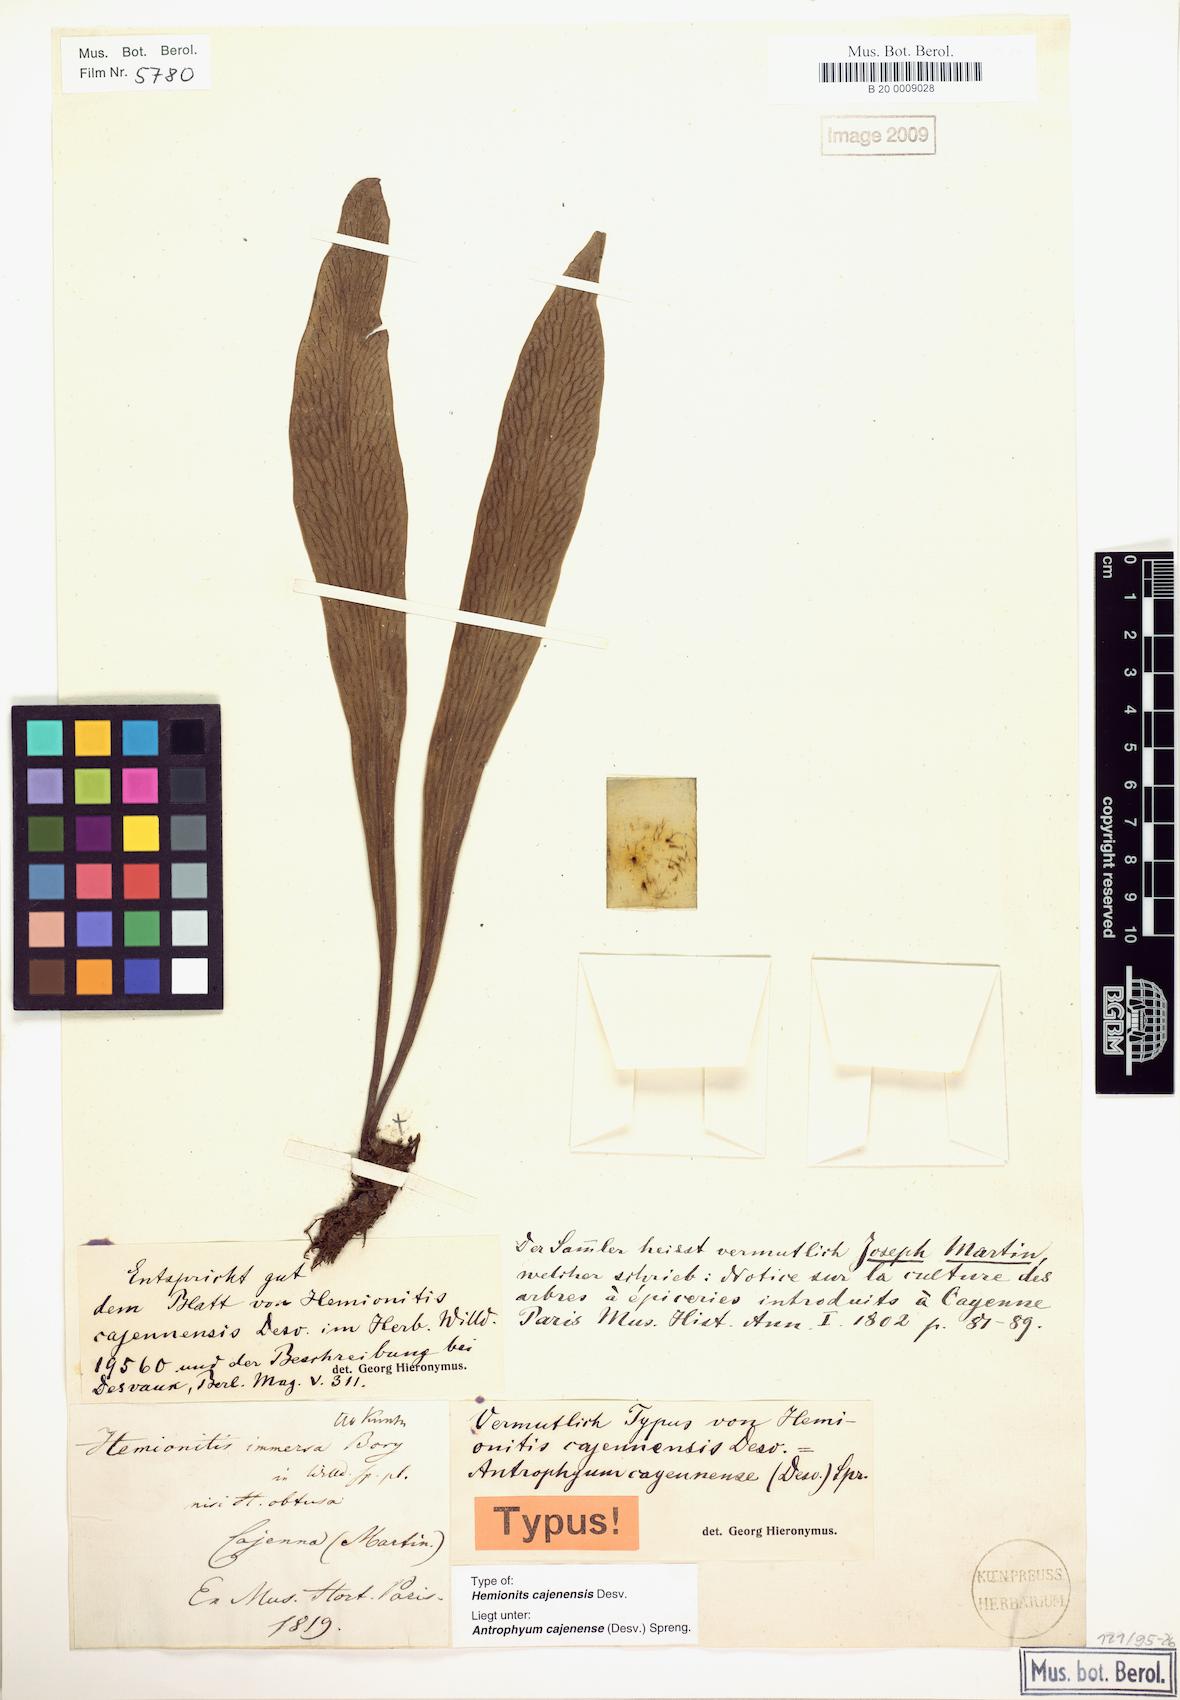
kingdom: Plantae
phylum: Tracheophyta
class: Polypodiopsida
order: Polypodiales
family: Pteridaceae
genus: Polytaenium
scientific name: Polytaenium cajenense
